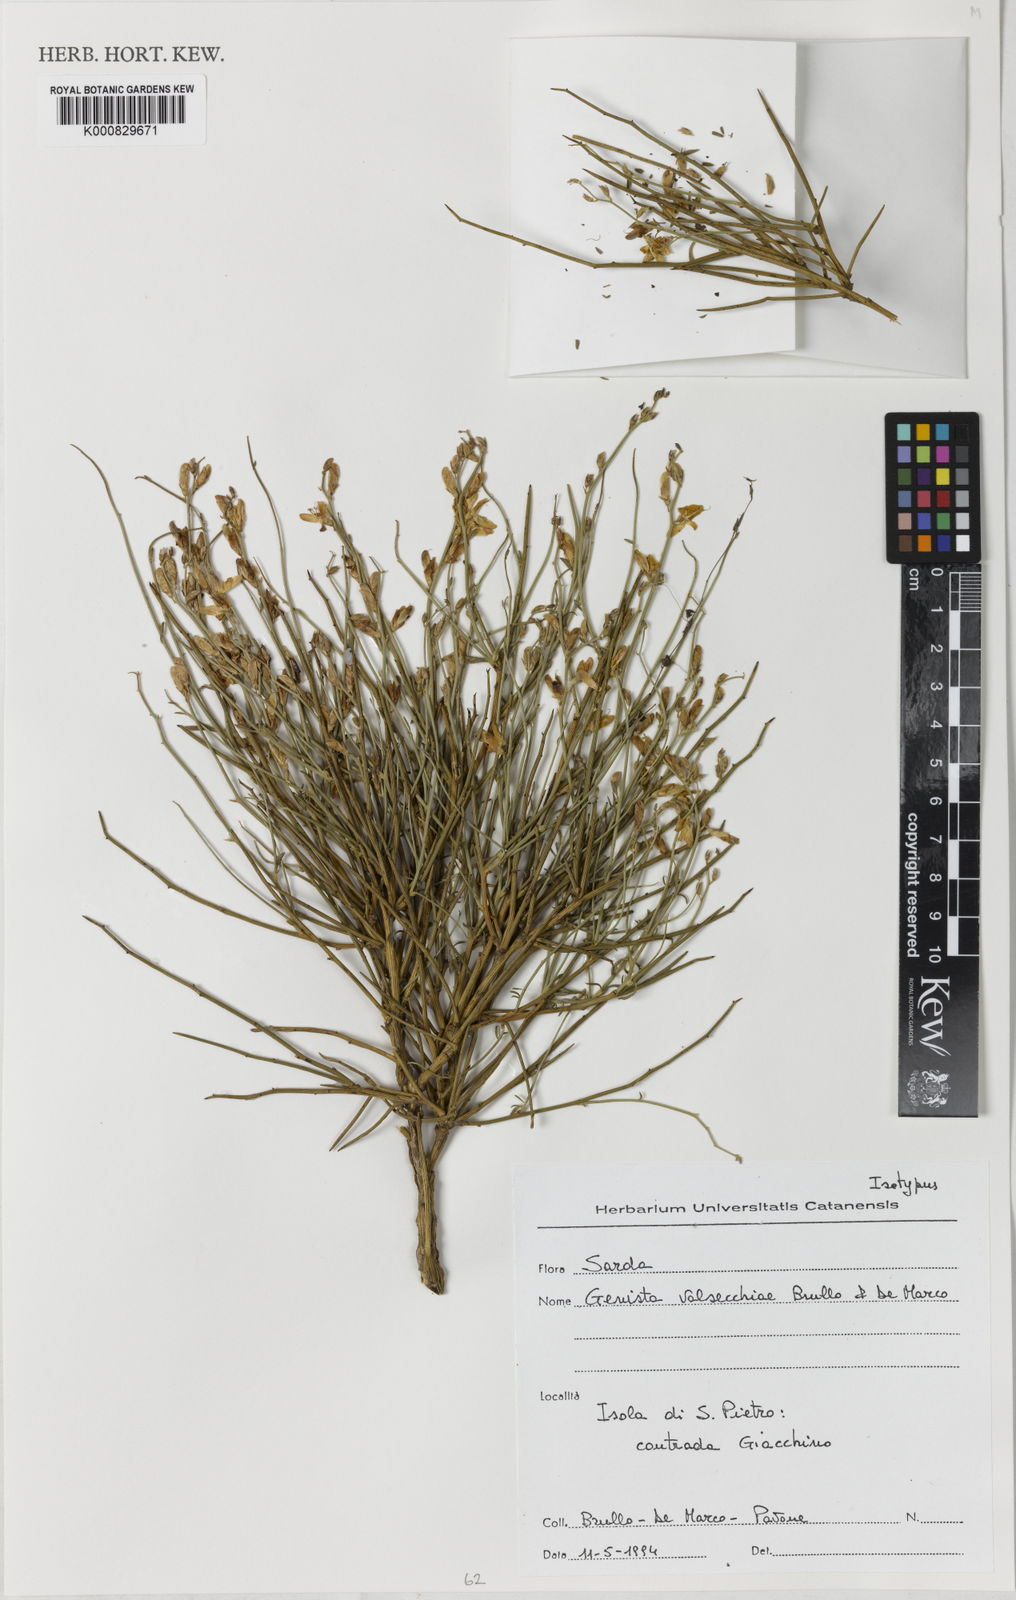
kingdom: Plantae
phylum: Tracheophyta
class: Magnoliopsida
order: Fabales
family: Fabaceae
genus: Genista
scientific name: Genista valsecchiae
